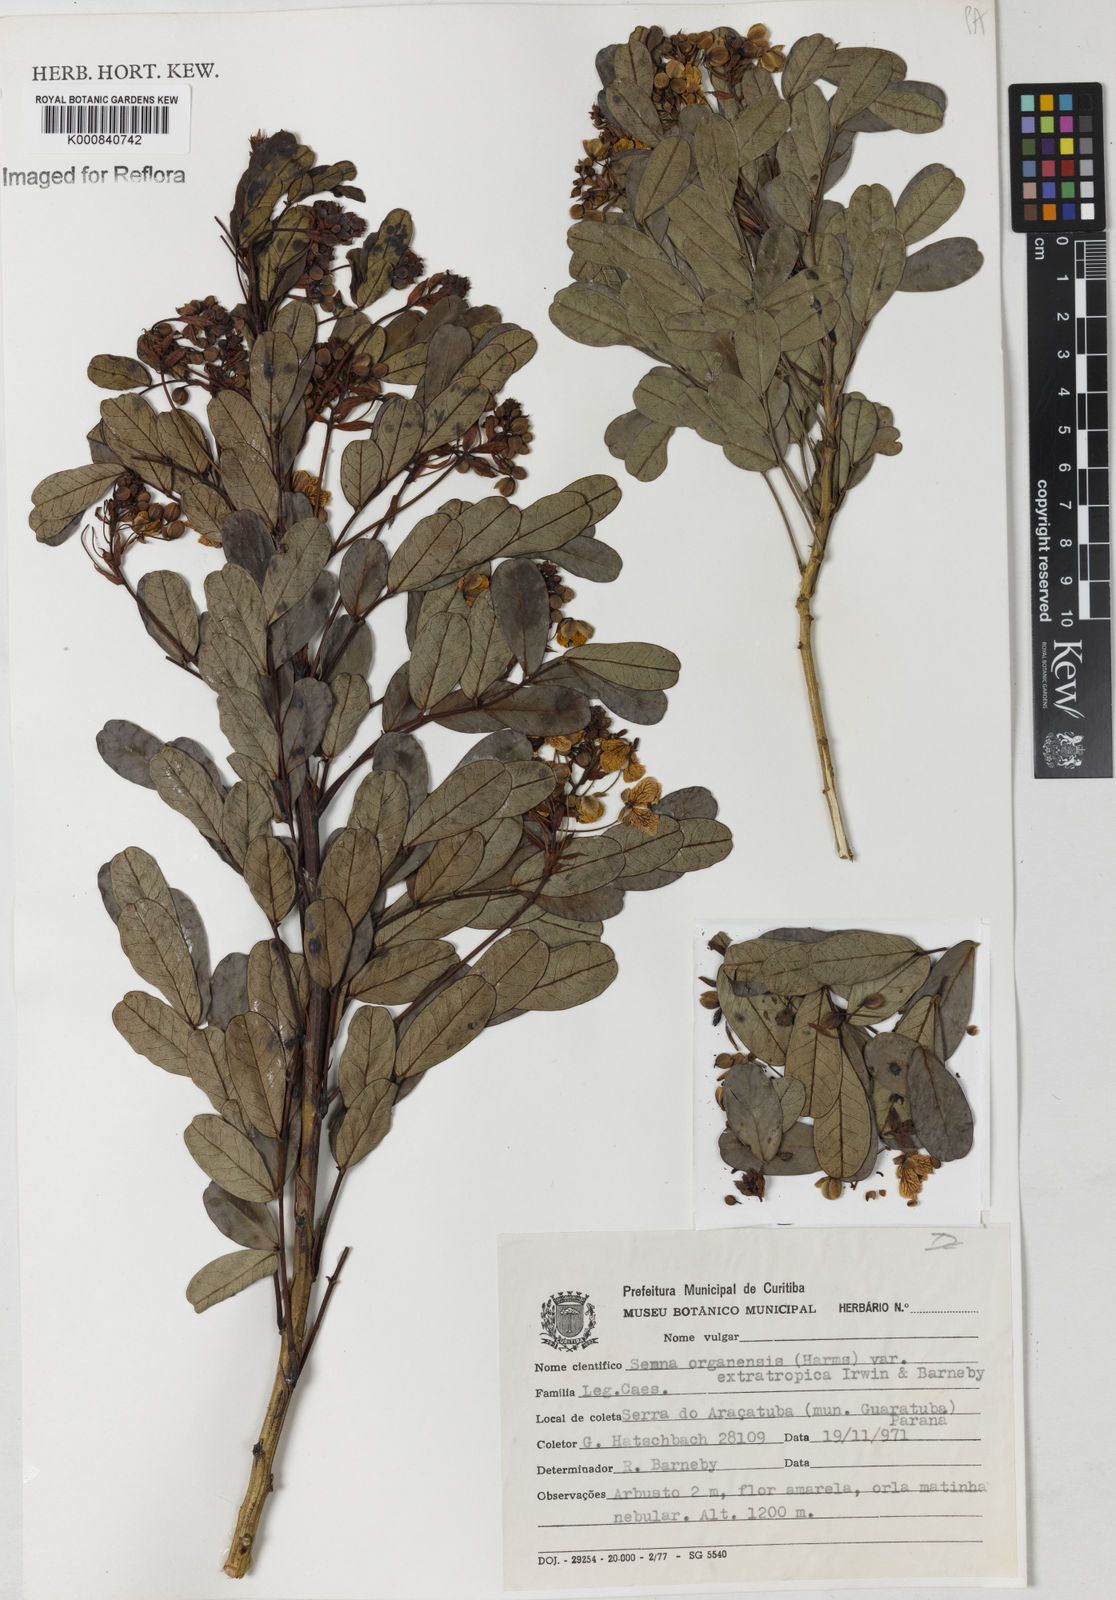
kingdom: Plantae
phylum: Tracheophyta
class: Magnoliopsida
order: Fabales
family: Fabaceae
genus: Senna
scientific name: Senna organensis
